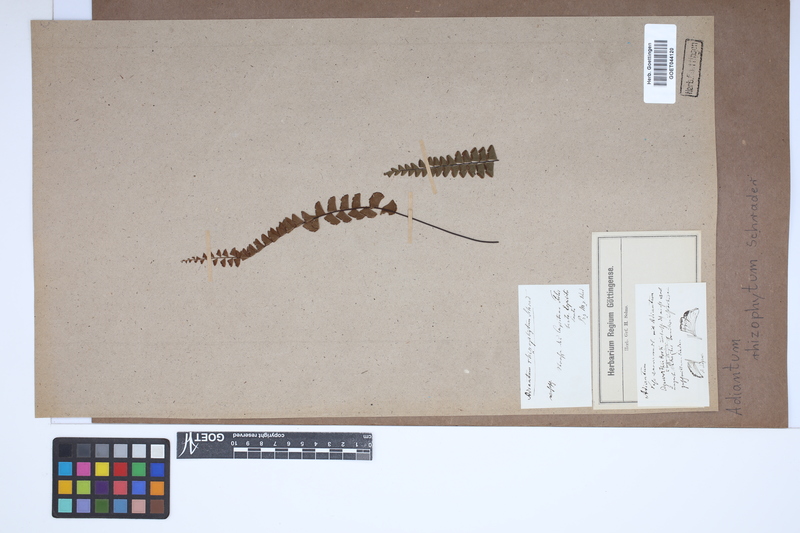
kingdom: Plantae
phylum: Tracheophyta
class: Polypodiopsida
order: Polypodiales
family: Pteridaceae
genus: Adiantum
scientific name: Adiantum rhizophytum
